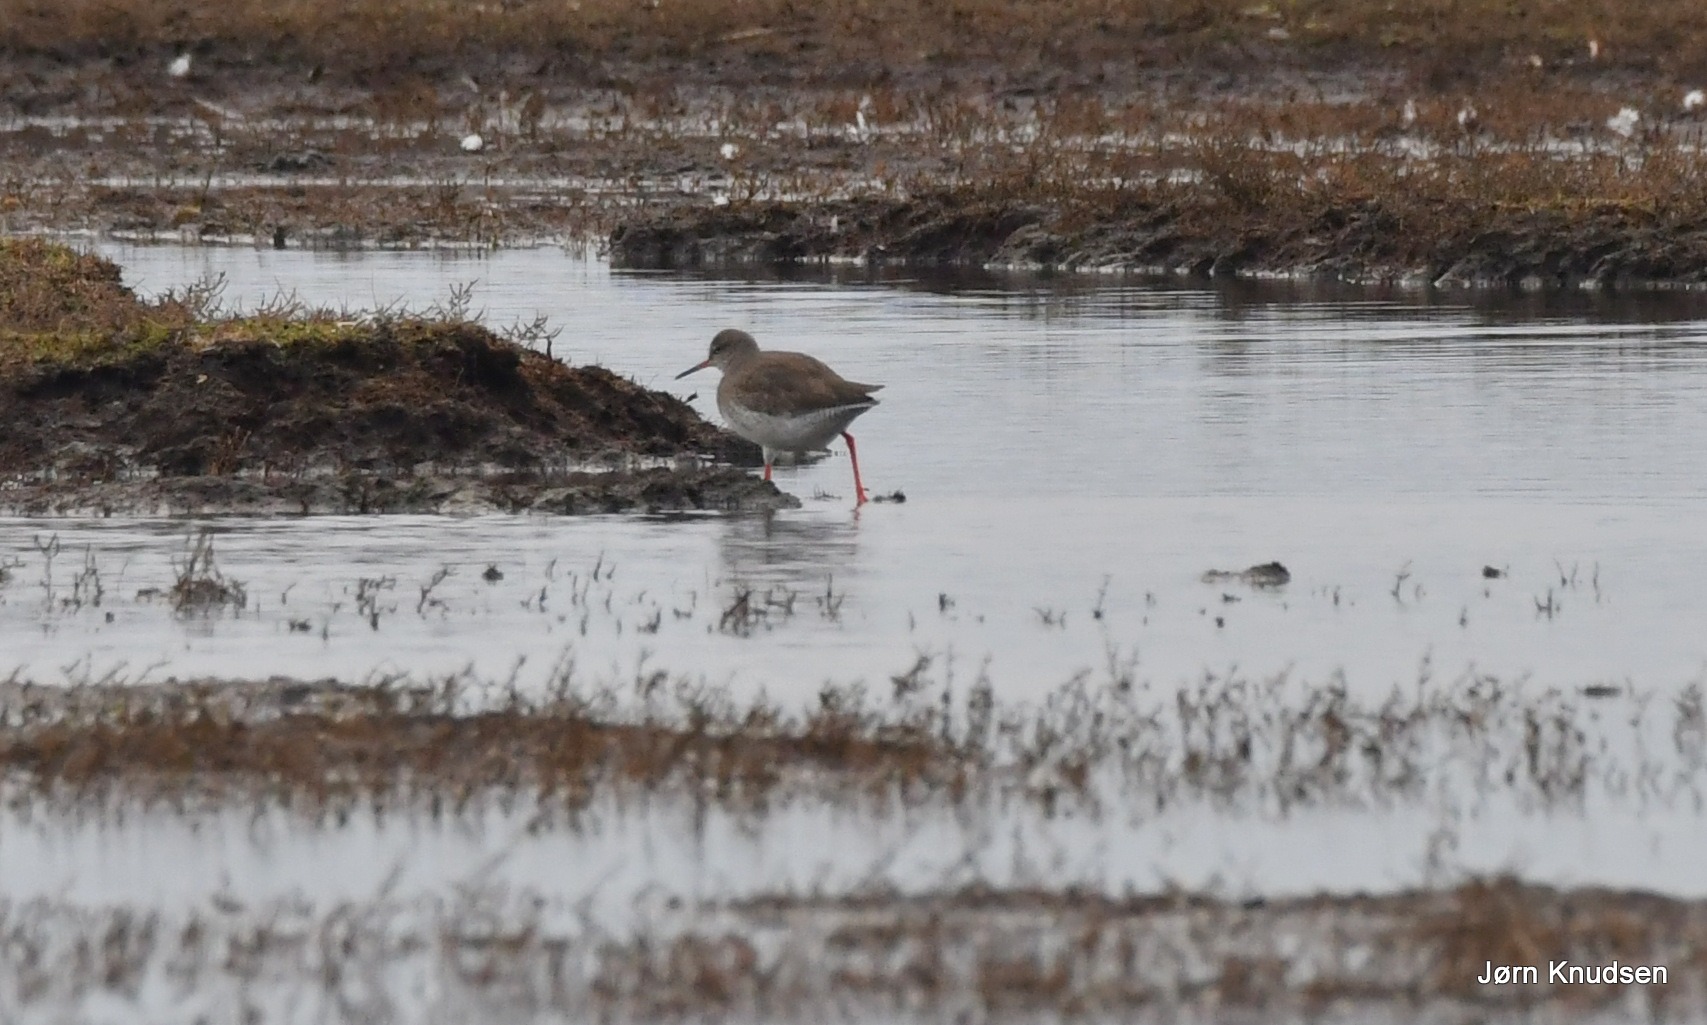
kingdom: Animalia
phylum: Chordata
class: Aves
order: Charadriiformes
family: Scolopacidae
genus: Tringa
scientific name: Tringa totanus
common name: Rødben
